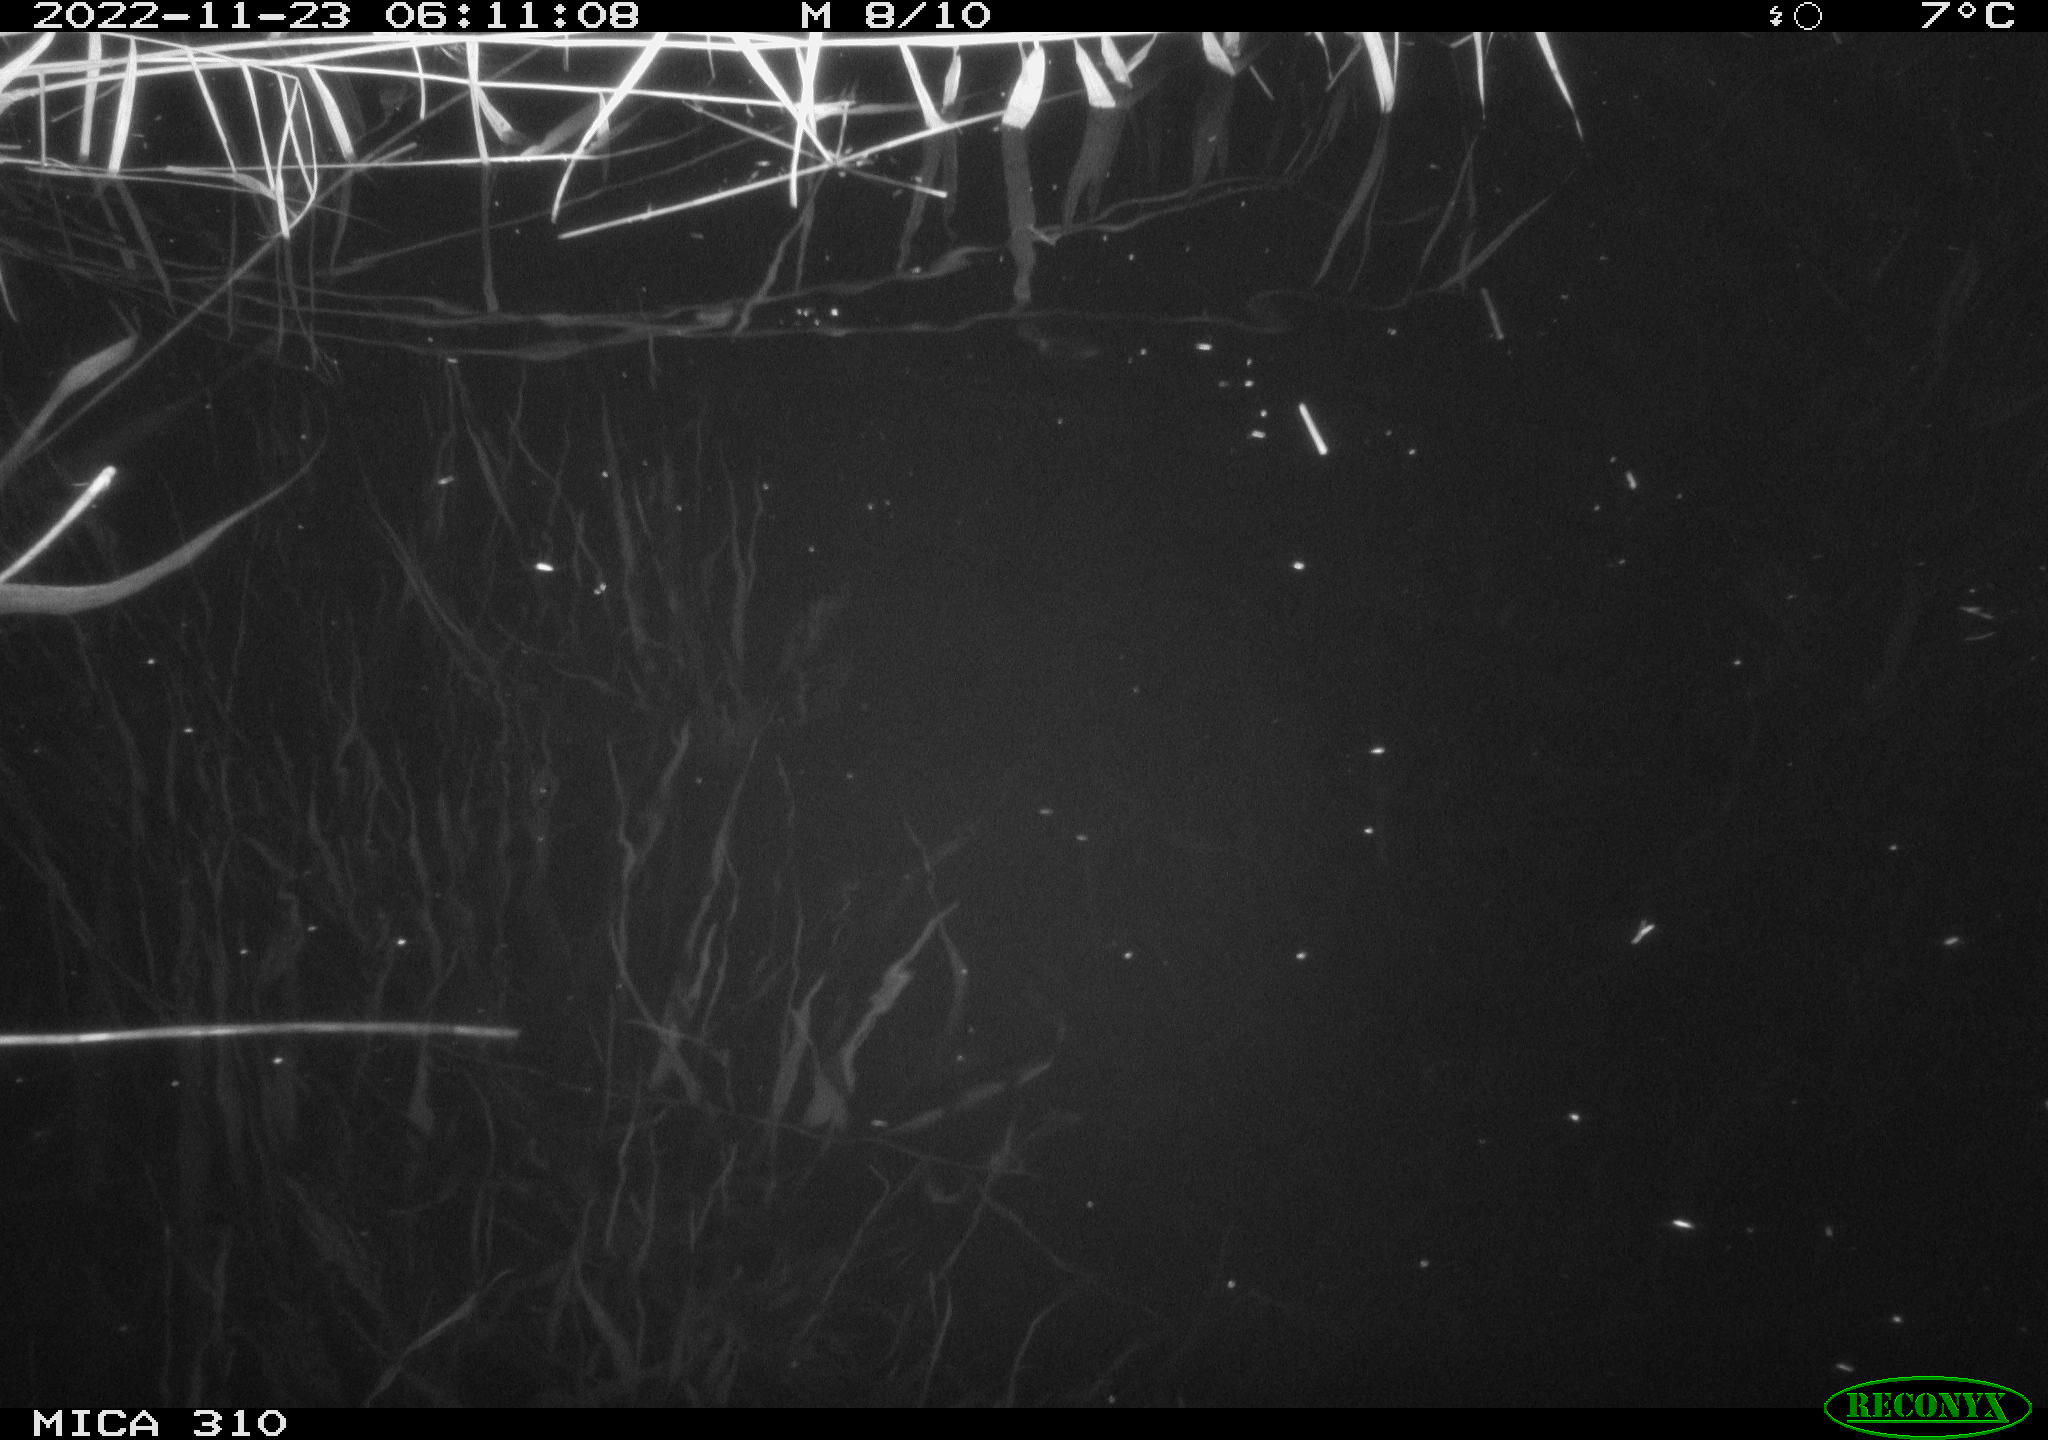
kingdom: Animalia
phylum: Chordata
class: Mammalia
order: Rodentia
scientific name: Rodentia
